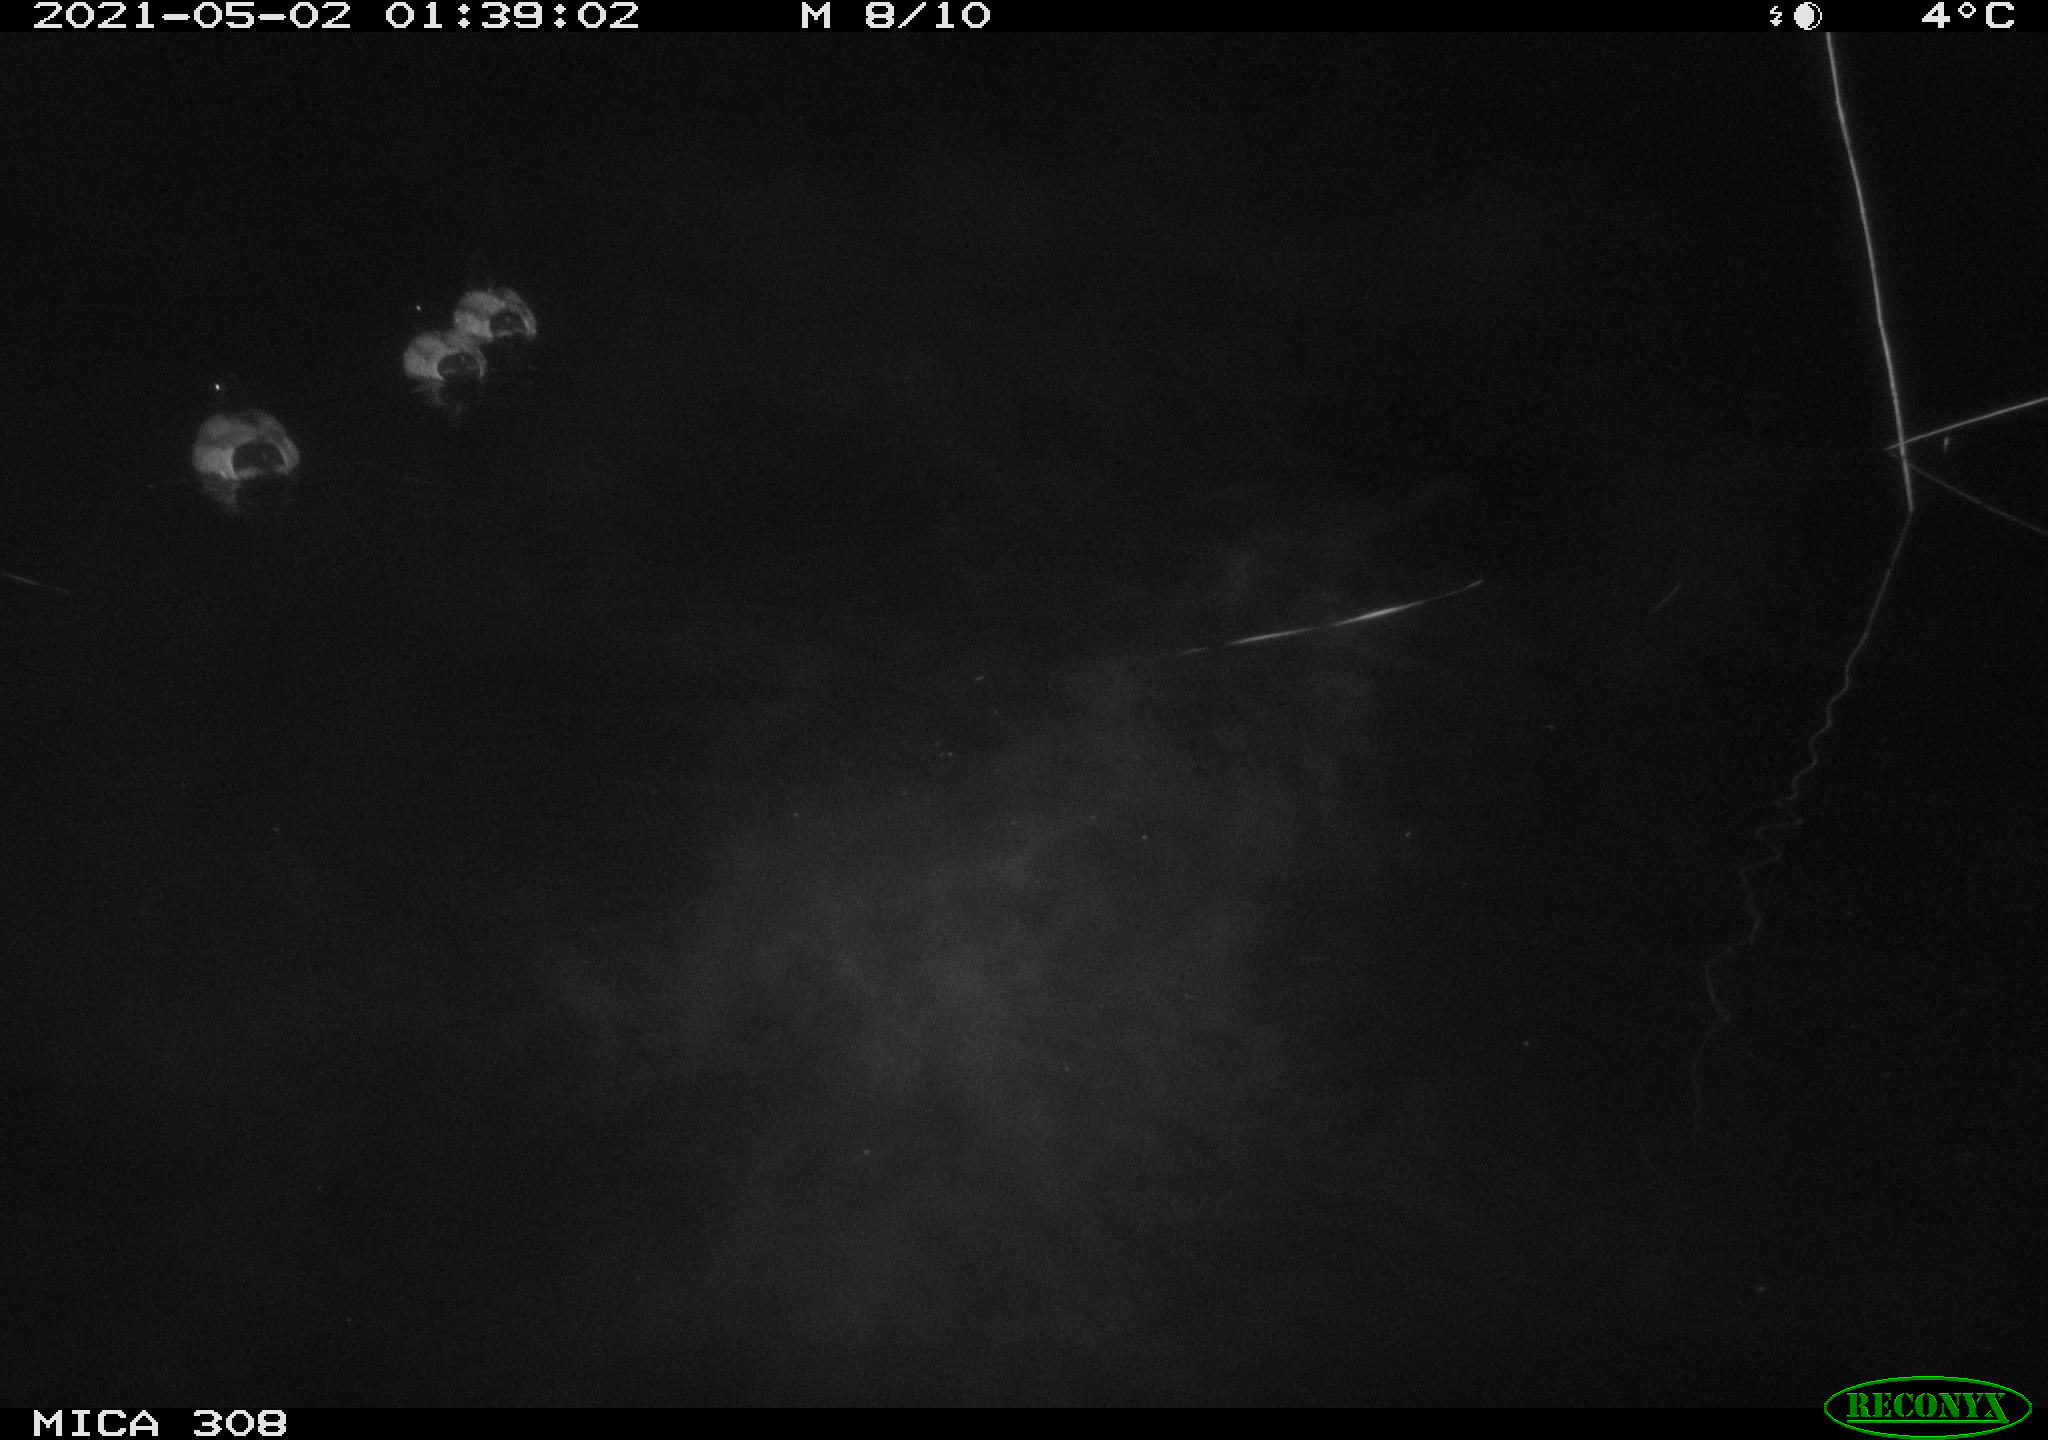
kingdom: Animalia
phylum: Chordata
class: Aves
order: Anseriformes
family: Anatidae
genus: Anas
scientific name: Anas platyrhynchos
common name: Mallard
